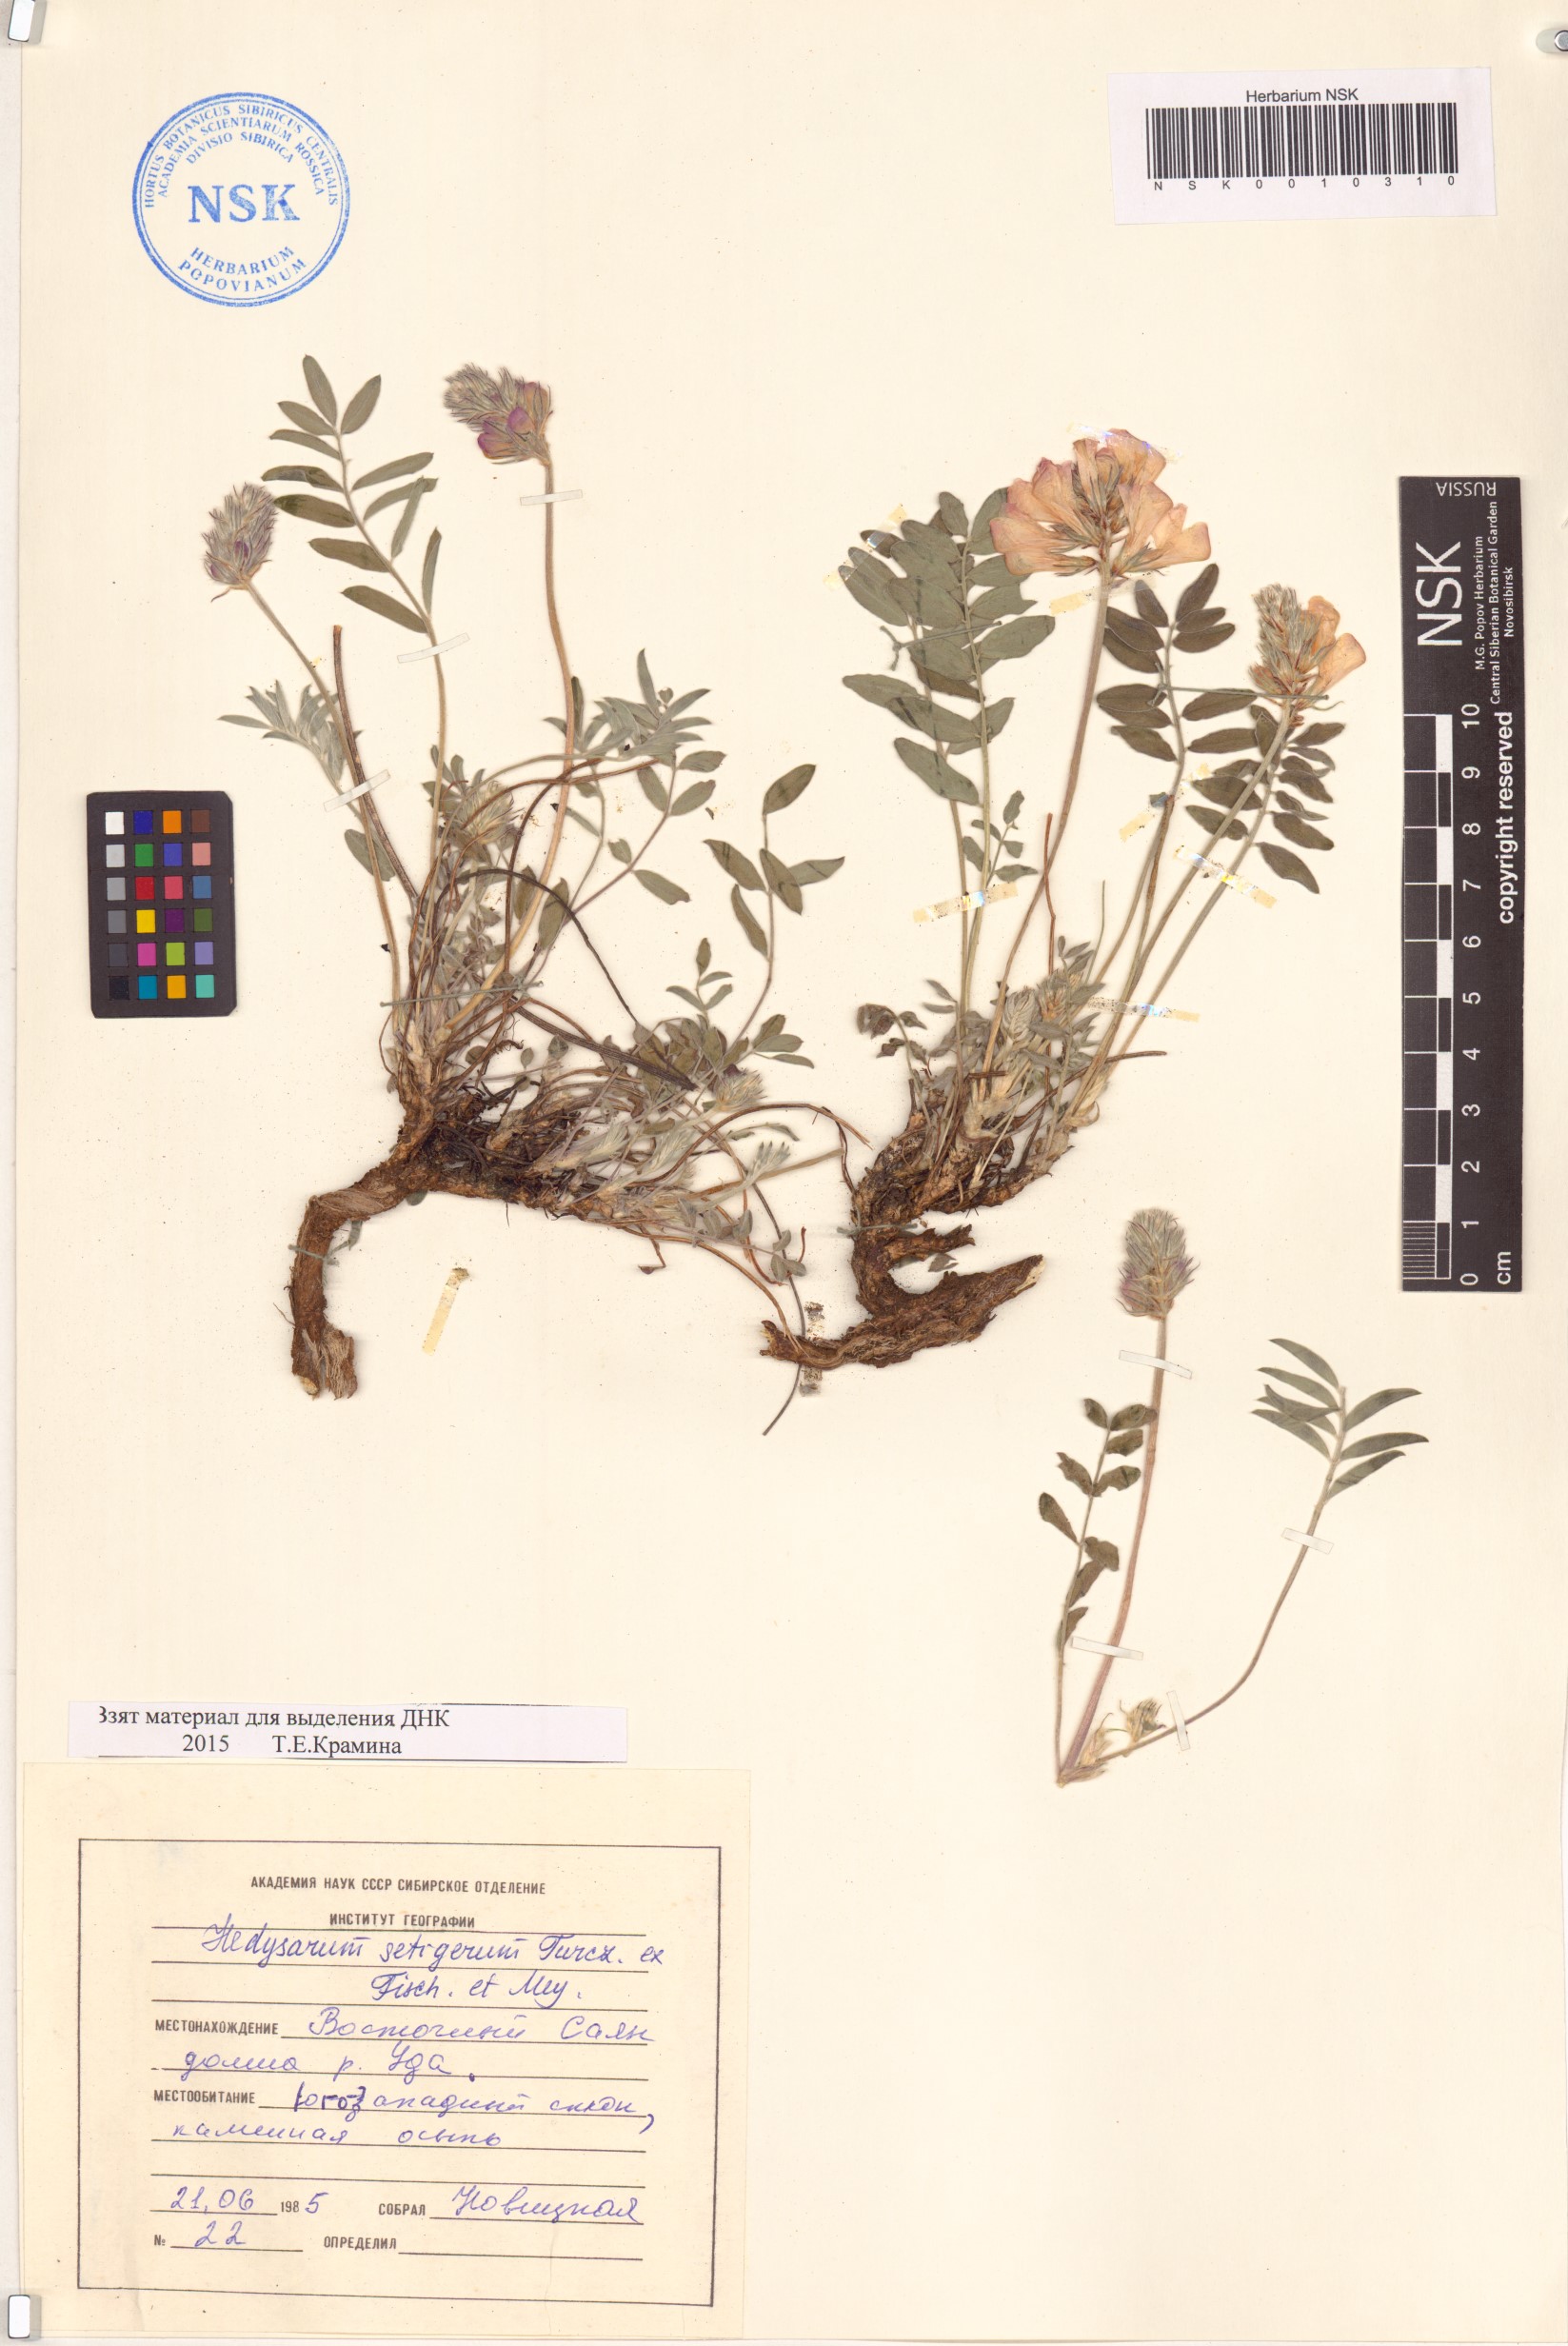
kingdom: Plantae
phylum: Tracheophyta
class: Magnoliopsida
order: Fabales
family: Fabaceae
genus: Hedysarum
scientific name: Hedysarum setigerum
